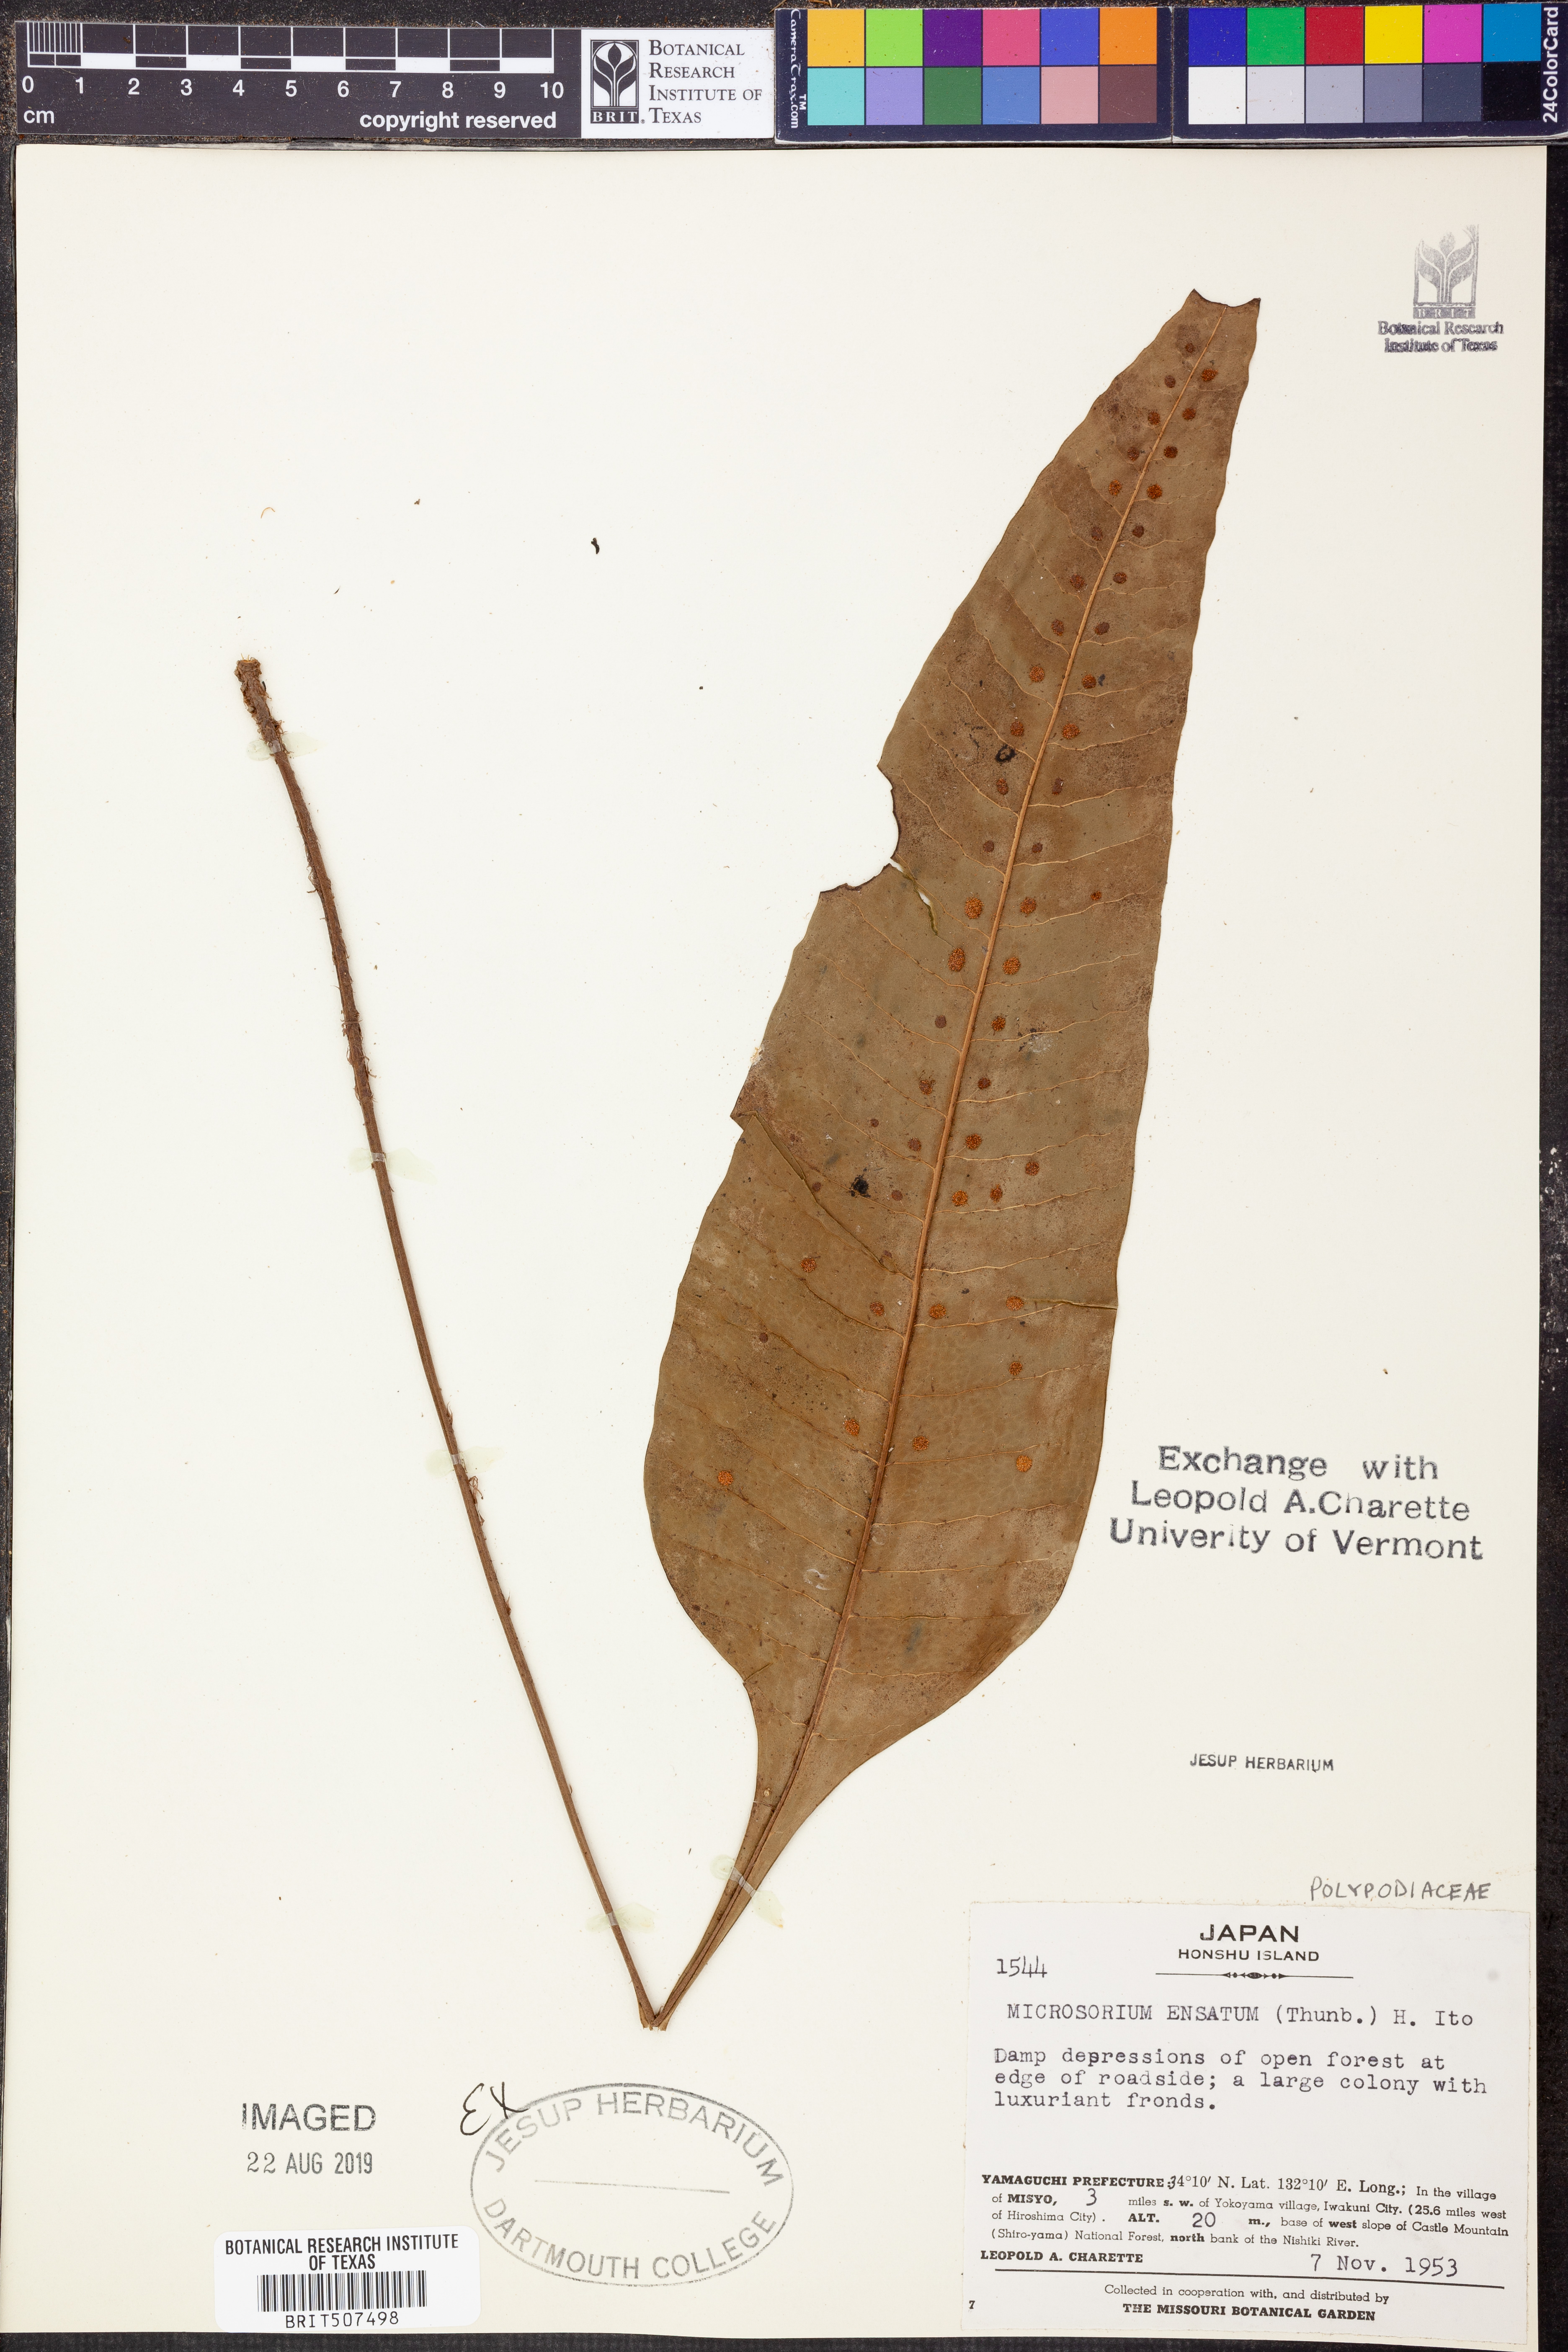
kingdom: Plantae
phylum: Tracheophyta
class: Polypodiopsida
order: Polypodiales
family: Polypodiaceae
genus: Lepisorus
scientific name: Lepisorus ensatus
